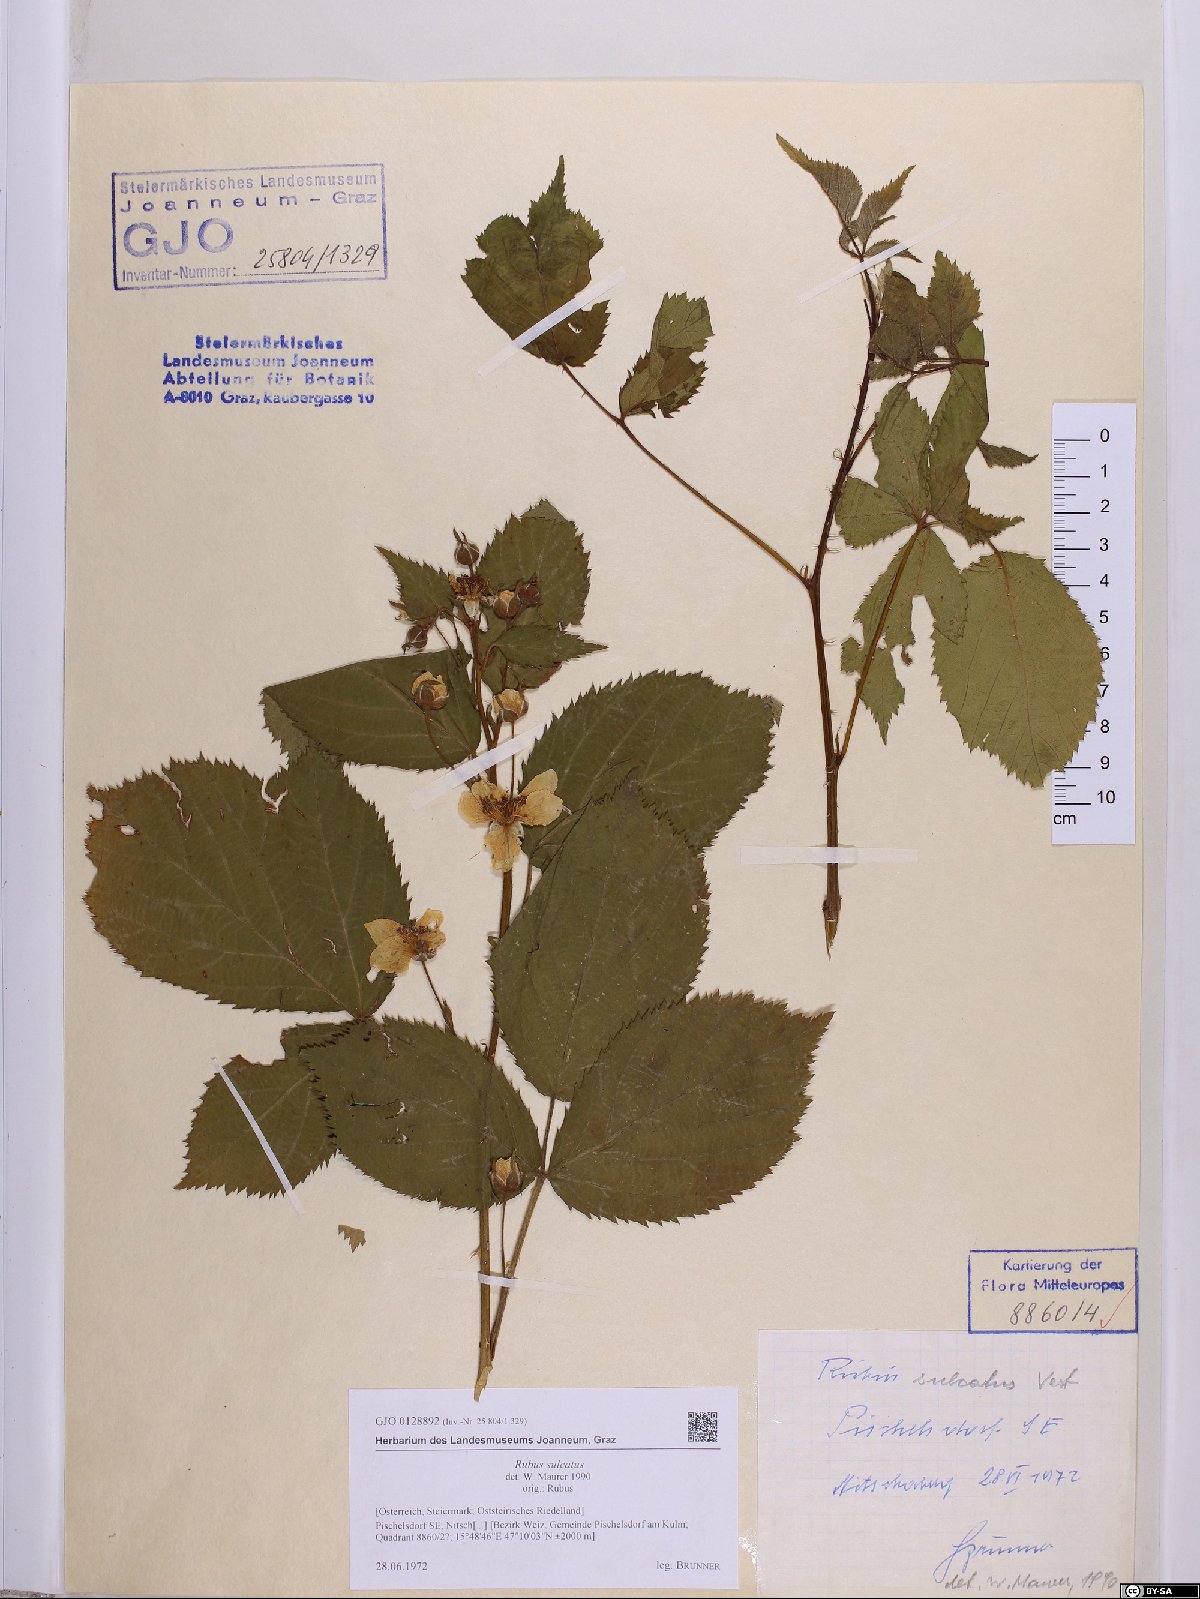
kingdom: Plantae
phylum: Tracheophyta
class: Magnoliopsida
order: Rosales
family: Rosaceae
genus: Rubus
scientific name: Rubus sulcatus
